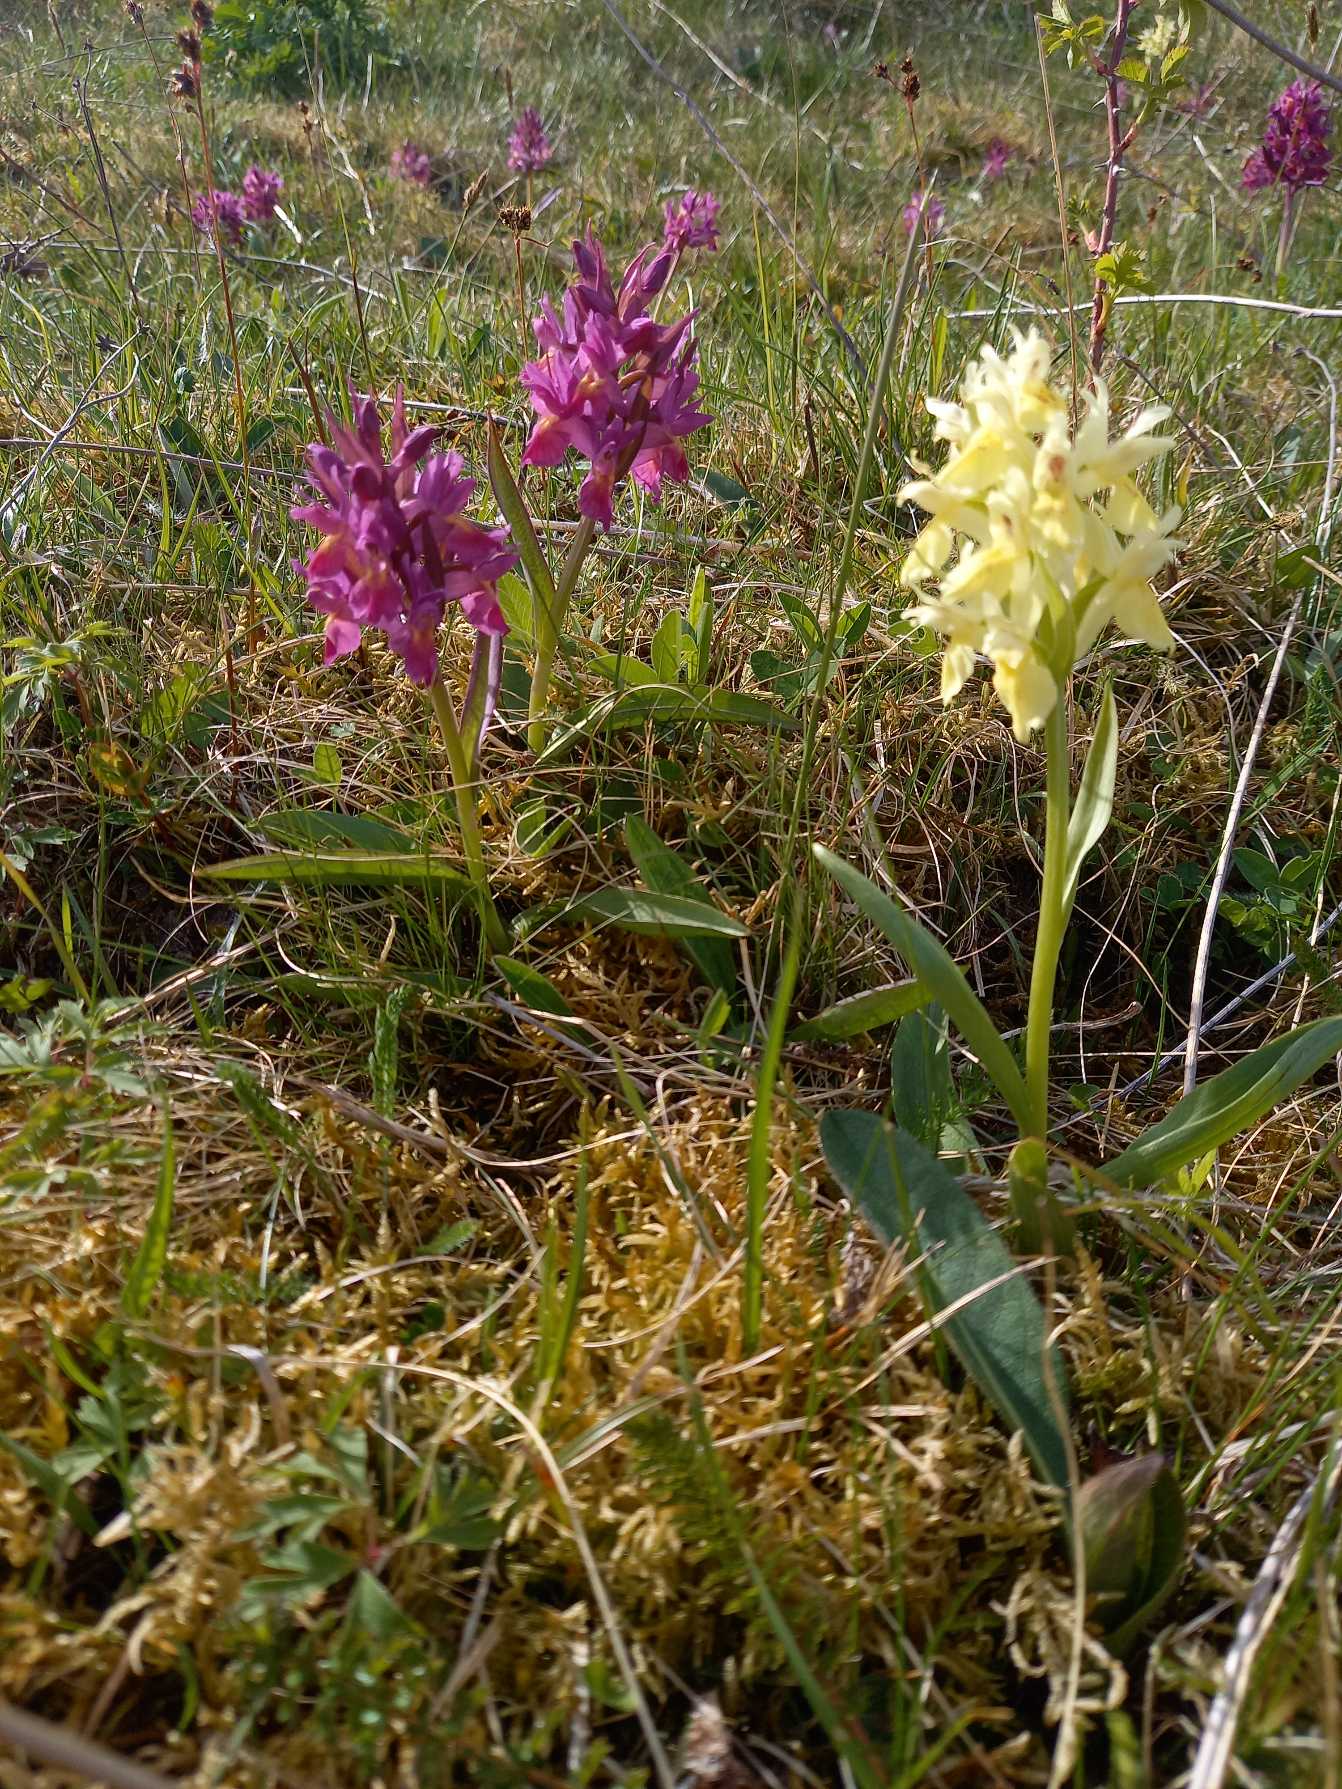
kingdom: Plantae
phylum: Tracheophyta
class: Liliopsida
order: Asparagales
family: Orchidaceae
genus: Dactylorhiza
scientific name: Dactylorhiza sambucina
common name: Hylde-gøgeurt
